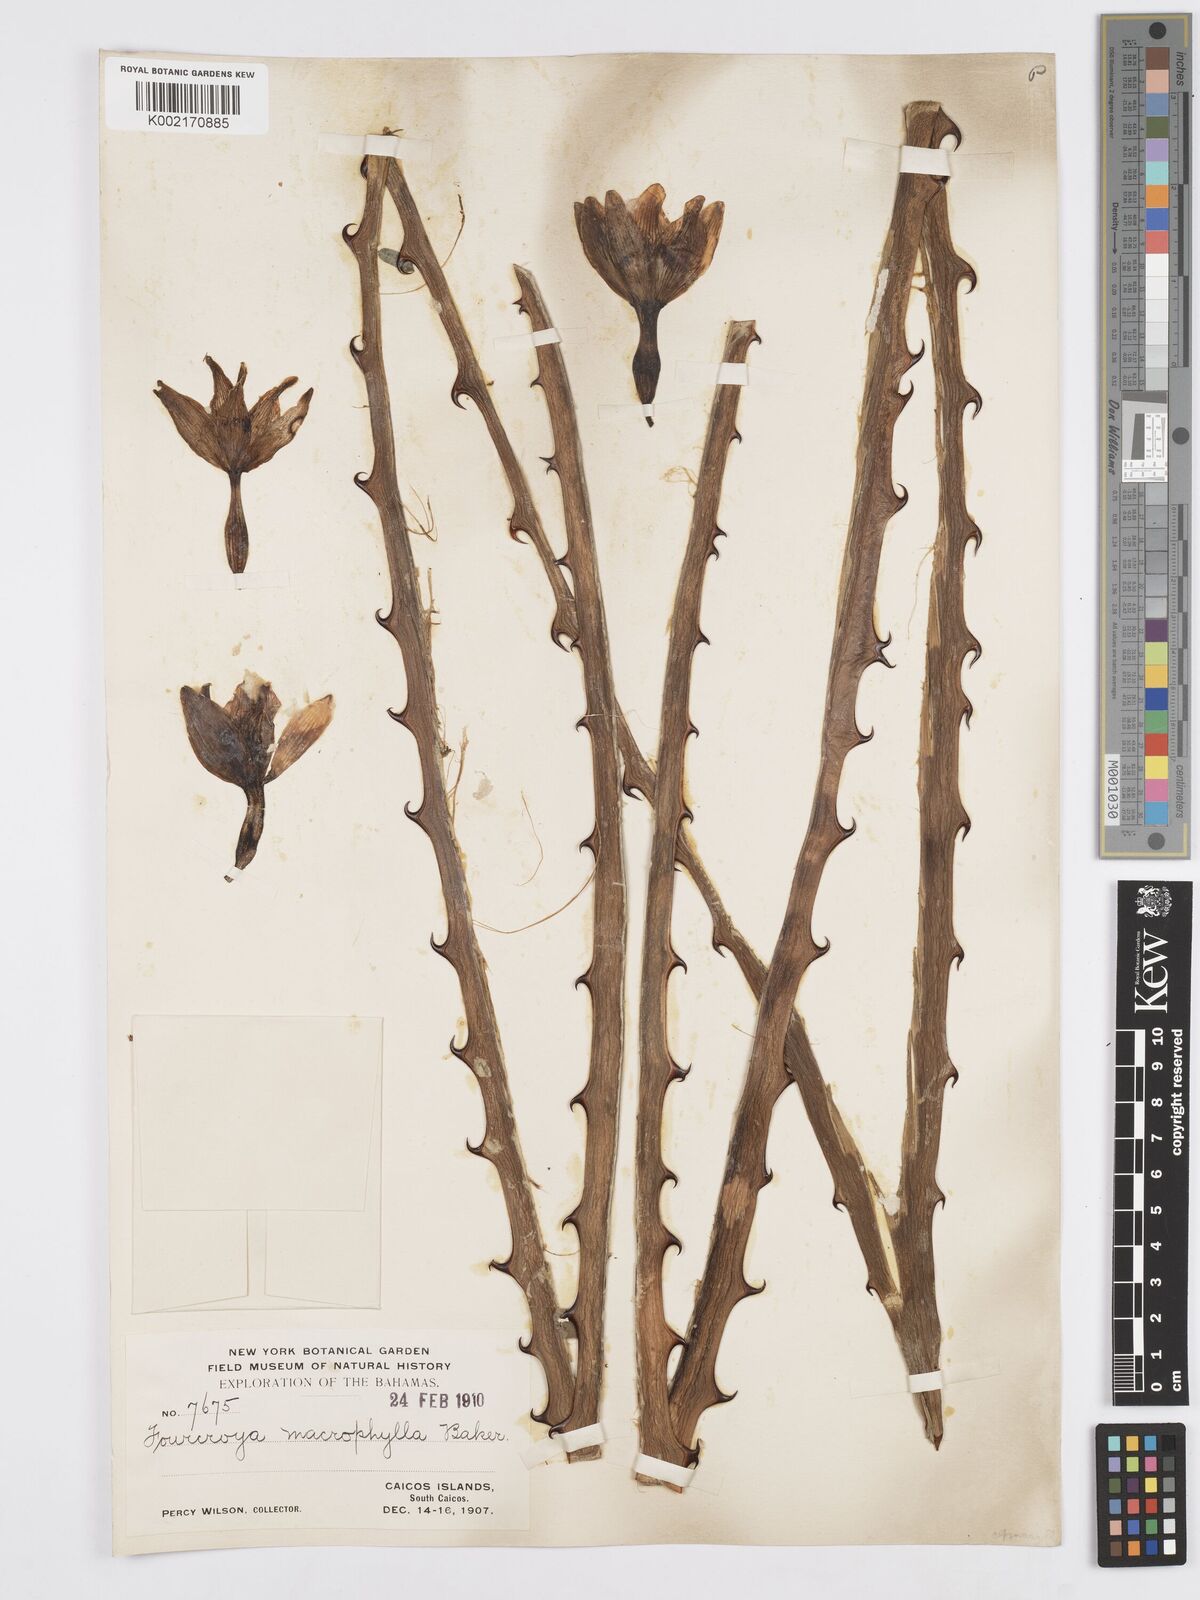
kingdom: Plantae
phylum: Tracheophyta
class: Liliopsida
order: Asparagales
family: Asparagaceae
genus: Furcraea
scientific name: Furcraea hexapetala
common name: Cuban-hemp
